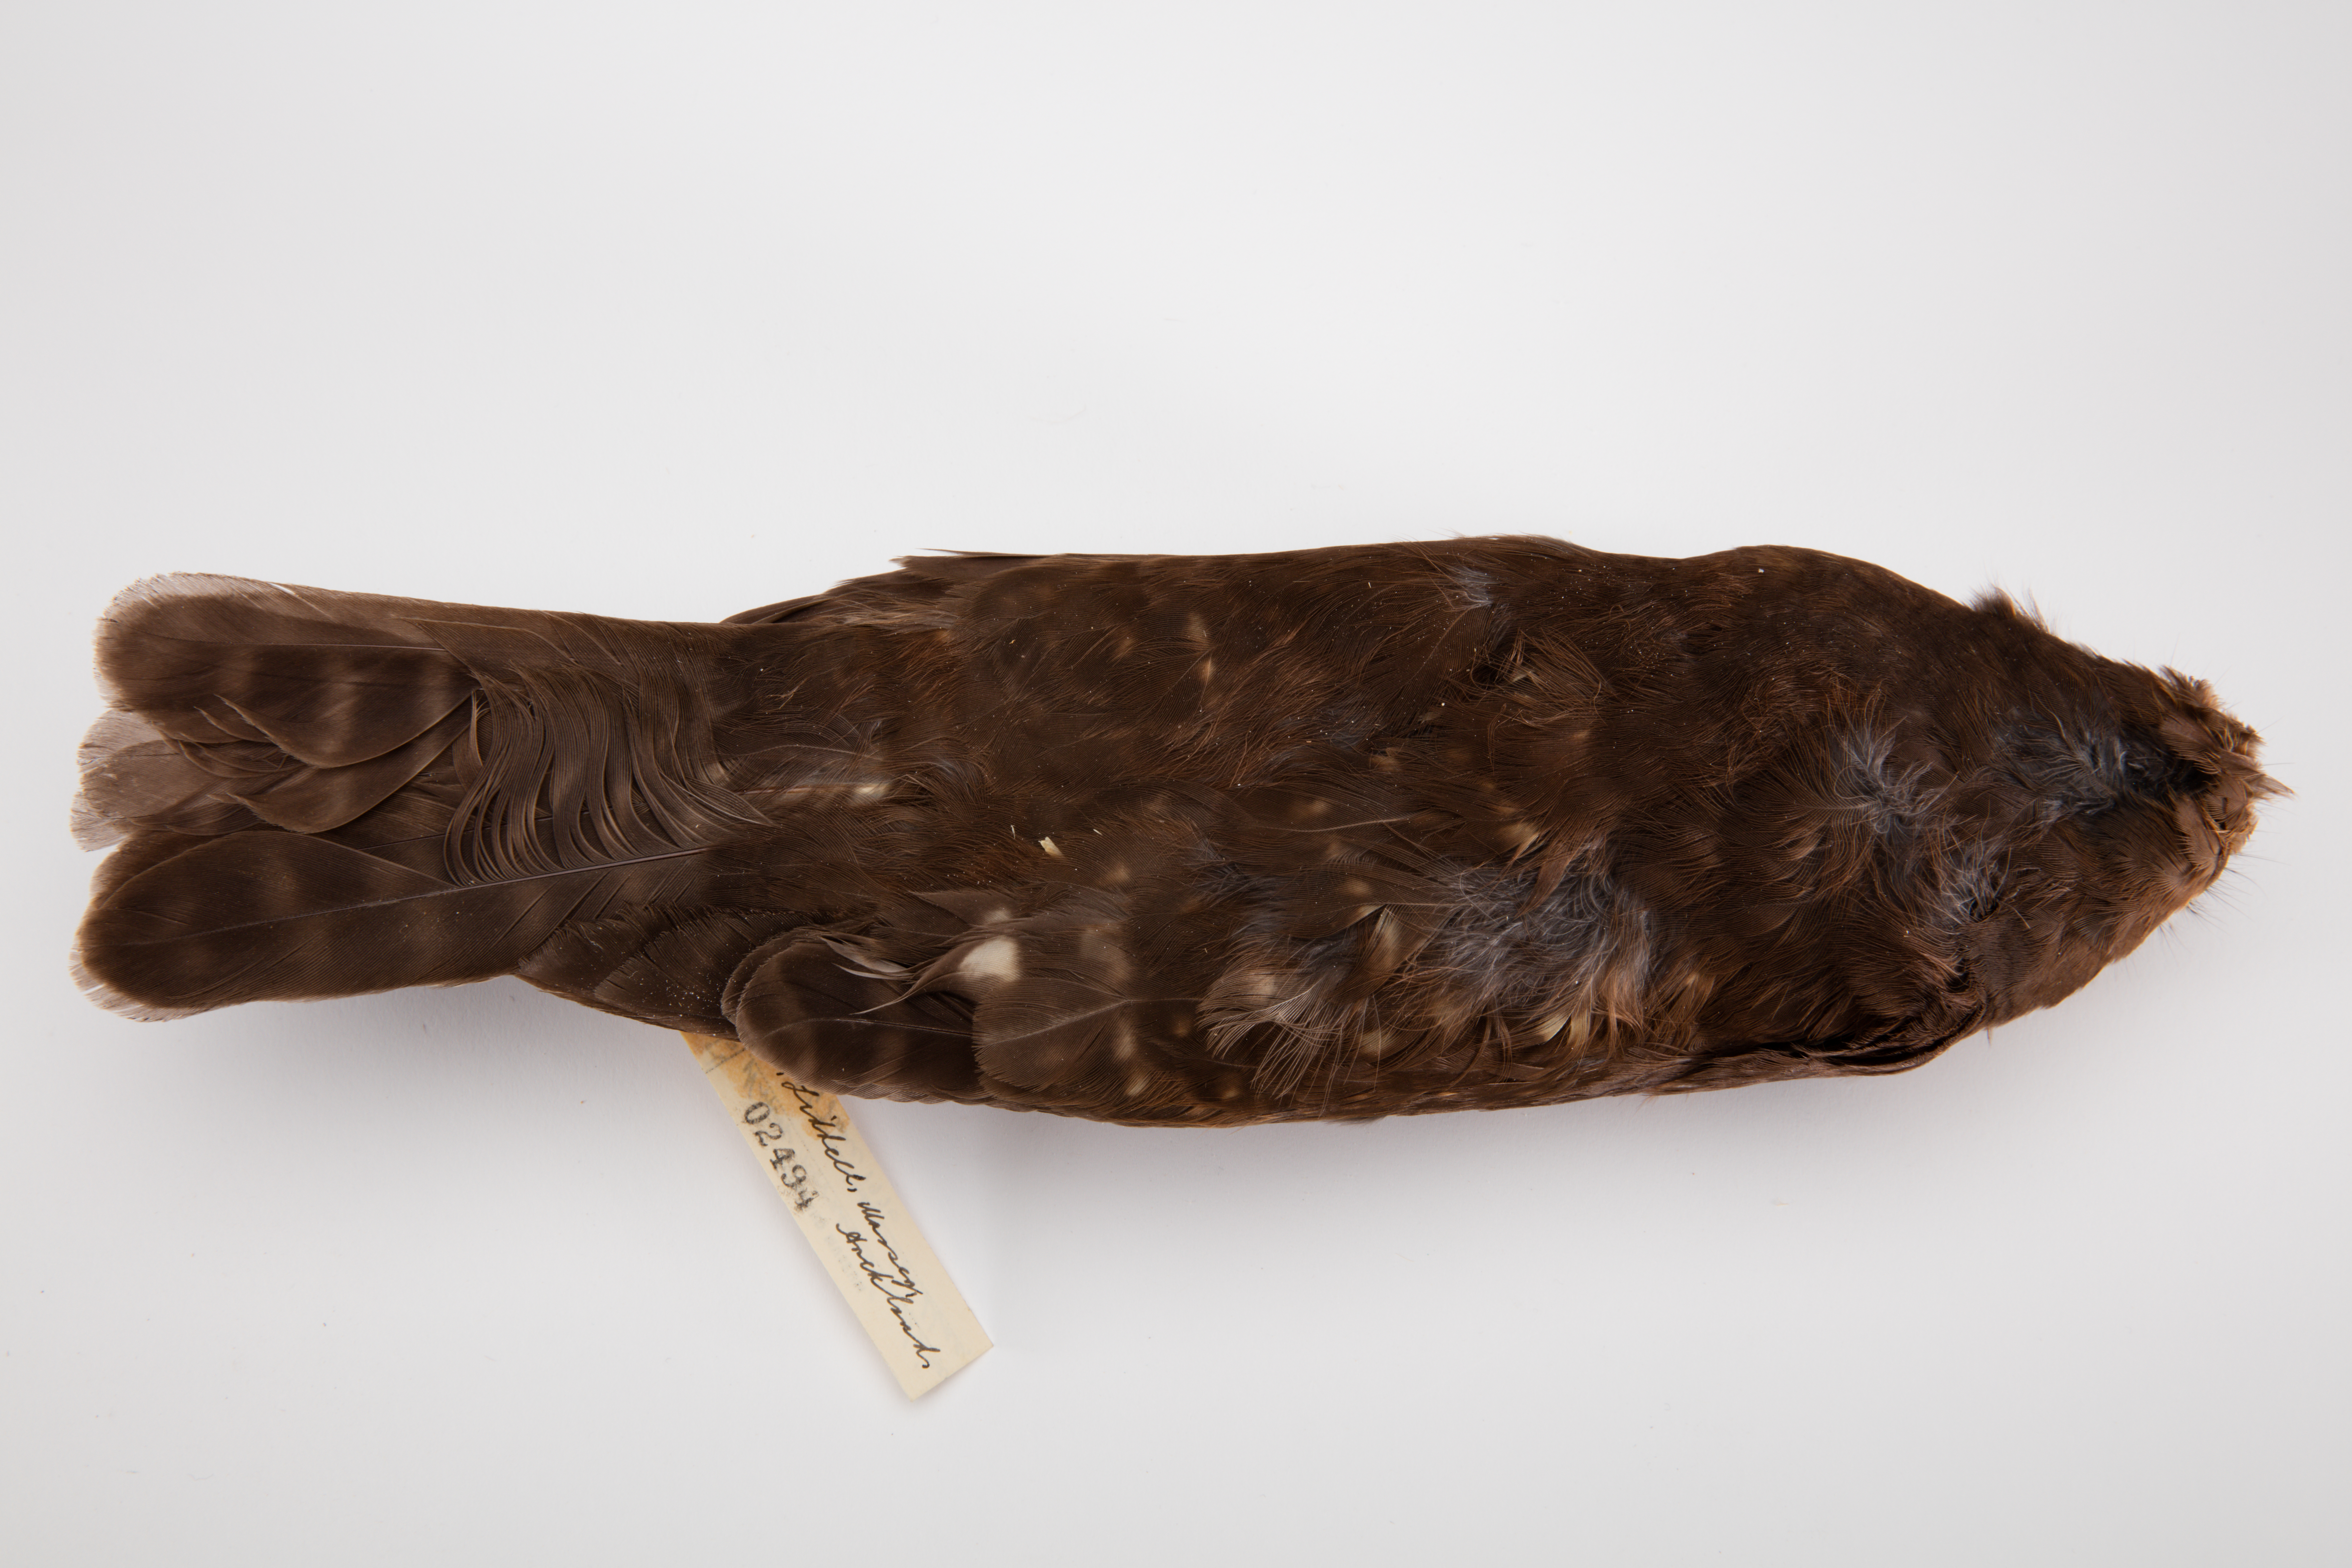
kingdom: Animalia
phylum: Chordata
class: Aves
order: Strigiformes
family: Strigidae
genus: Ninox
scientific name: Ninox novaeseelandiae
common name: Morepork
